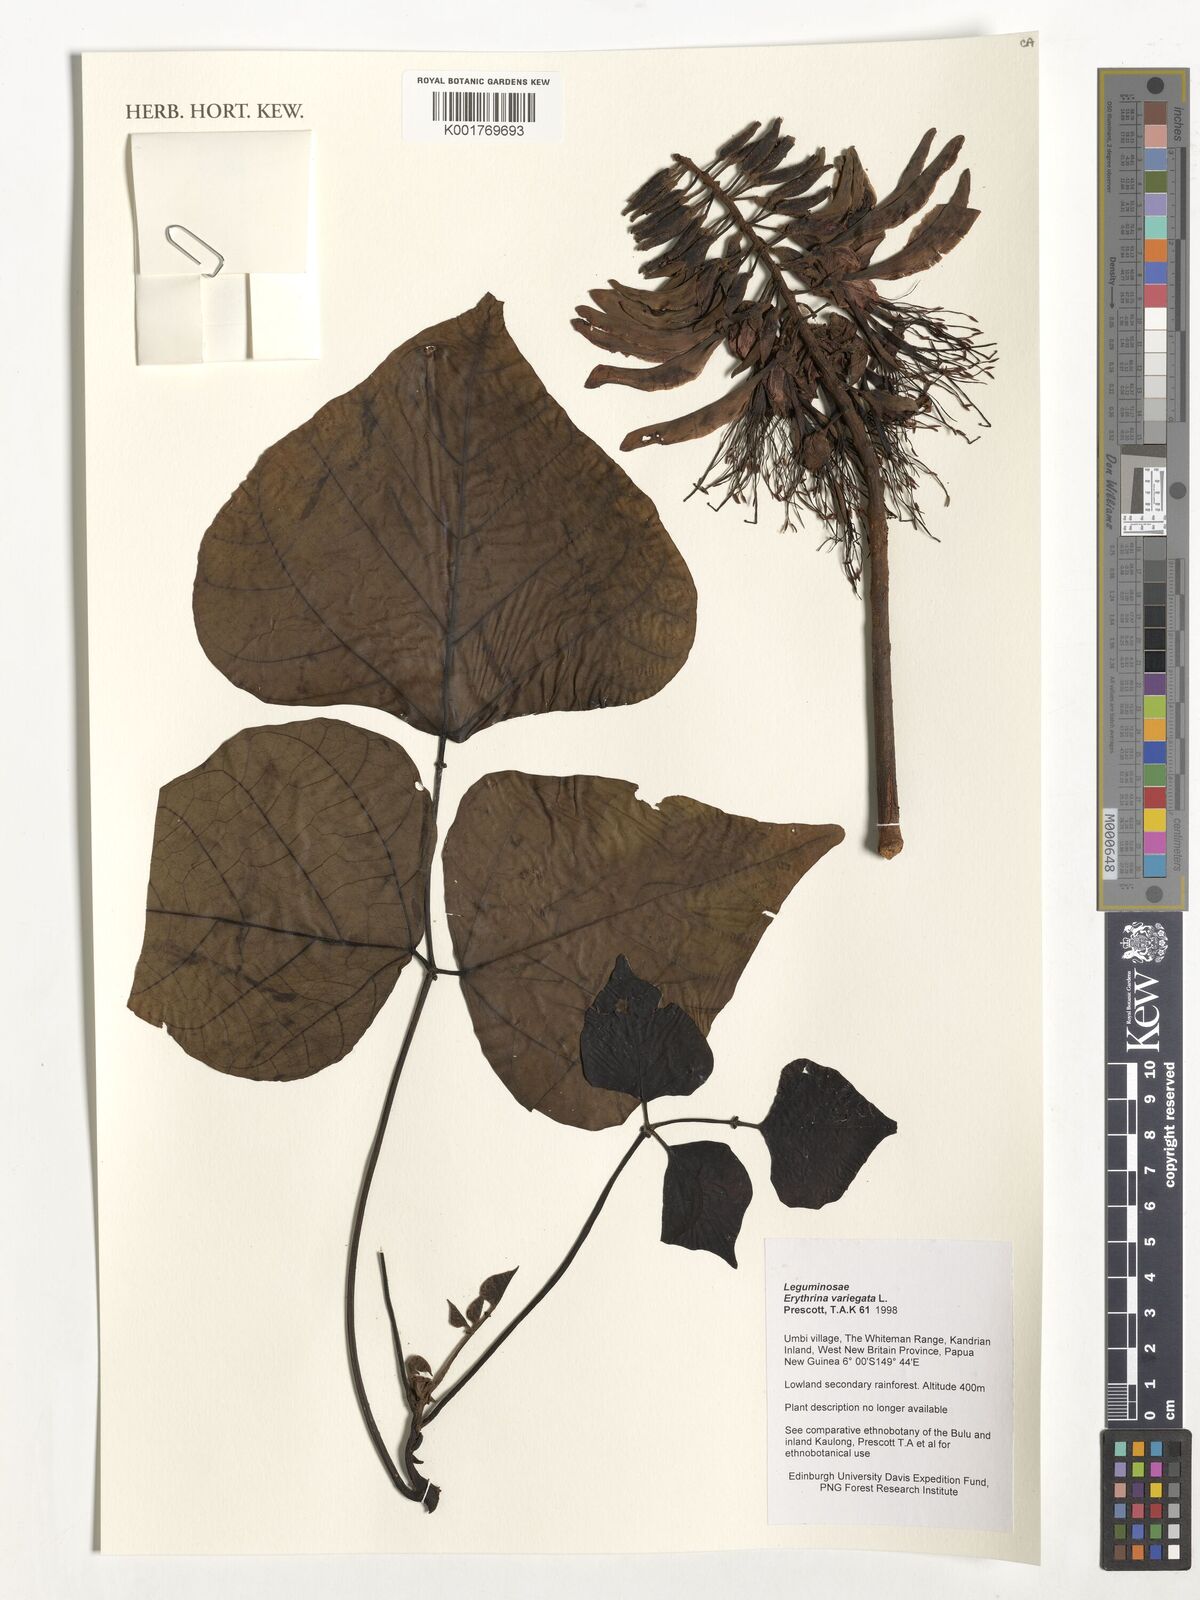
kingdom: Plantae
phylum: Tracheophyta
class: Magnoliopsida
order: Fabales
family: Fabaceae
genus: Erythrina
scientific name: Erythrina variegata
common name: Indian coral tree
